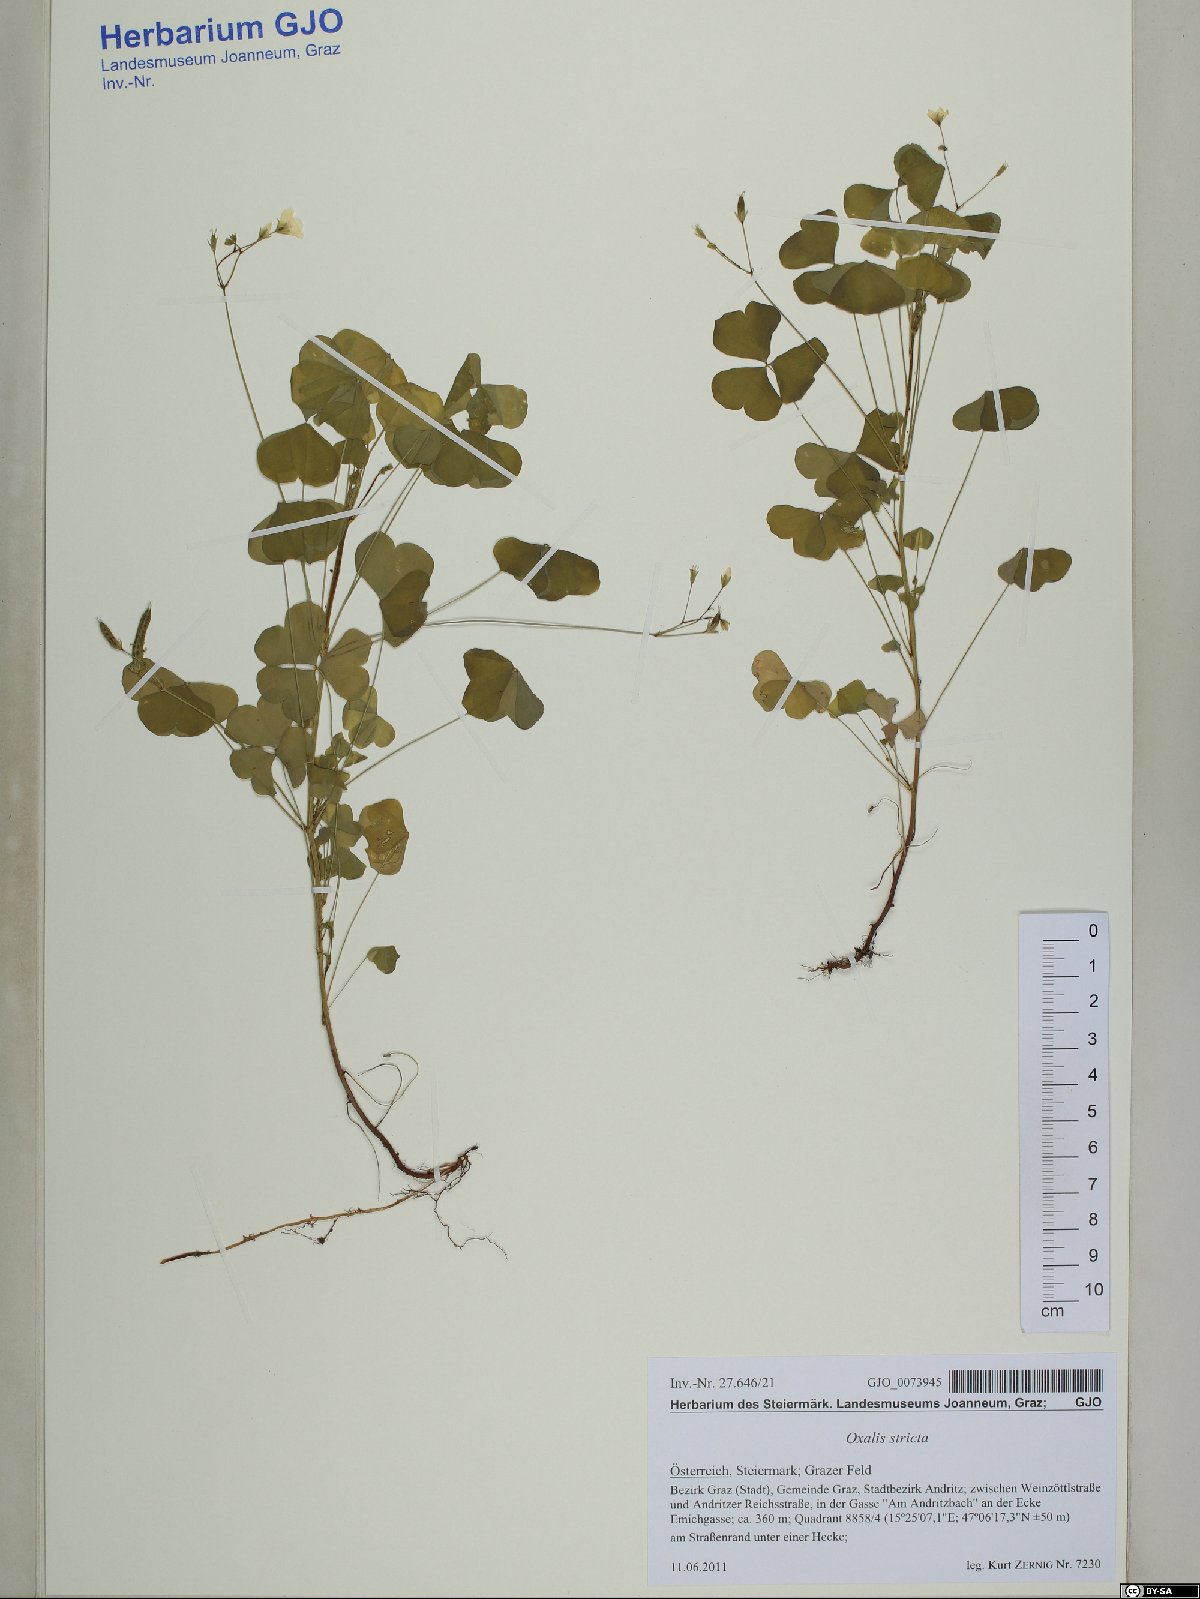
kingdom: Plantae
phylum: Tracheophyta
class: Magnoliopsida
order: Oxalidales
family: Oxalidaceae
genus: Oxalis
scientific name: Oxalis stricta
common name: Upright yellow-sorrel
